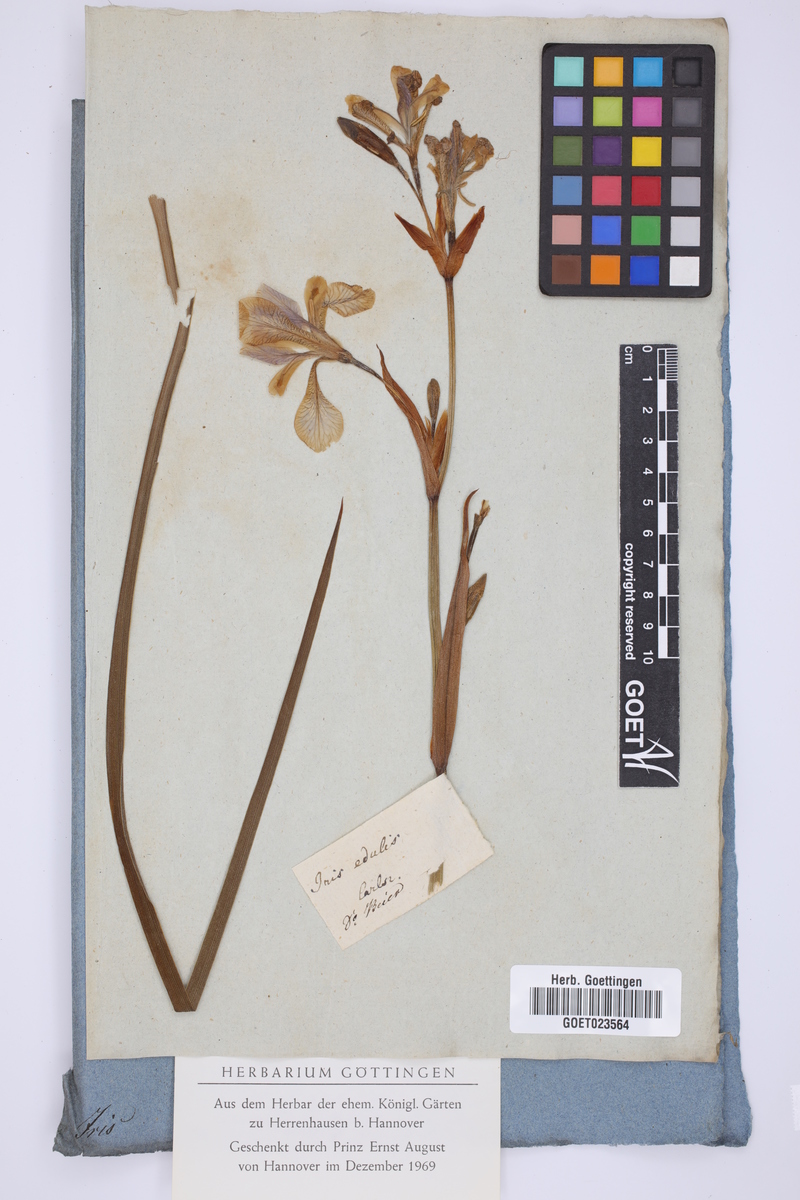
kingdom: Plantae
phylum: Tracheophyta
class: Liliopsida
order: Asparagales
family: Iridaceae
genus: Moraea
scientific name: Moraea fugax
